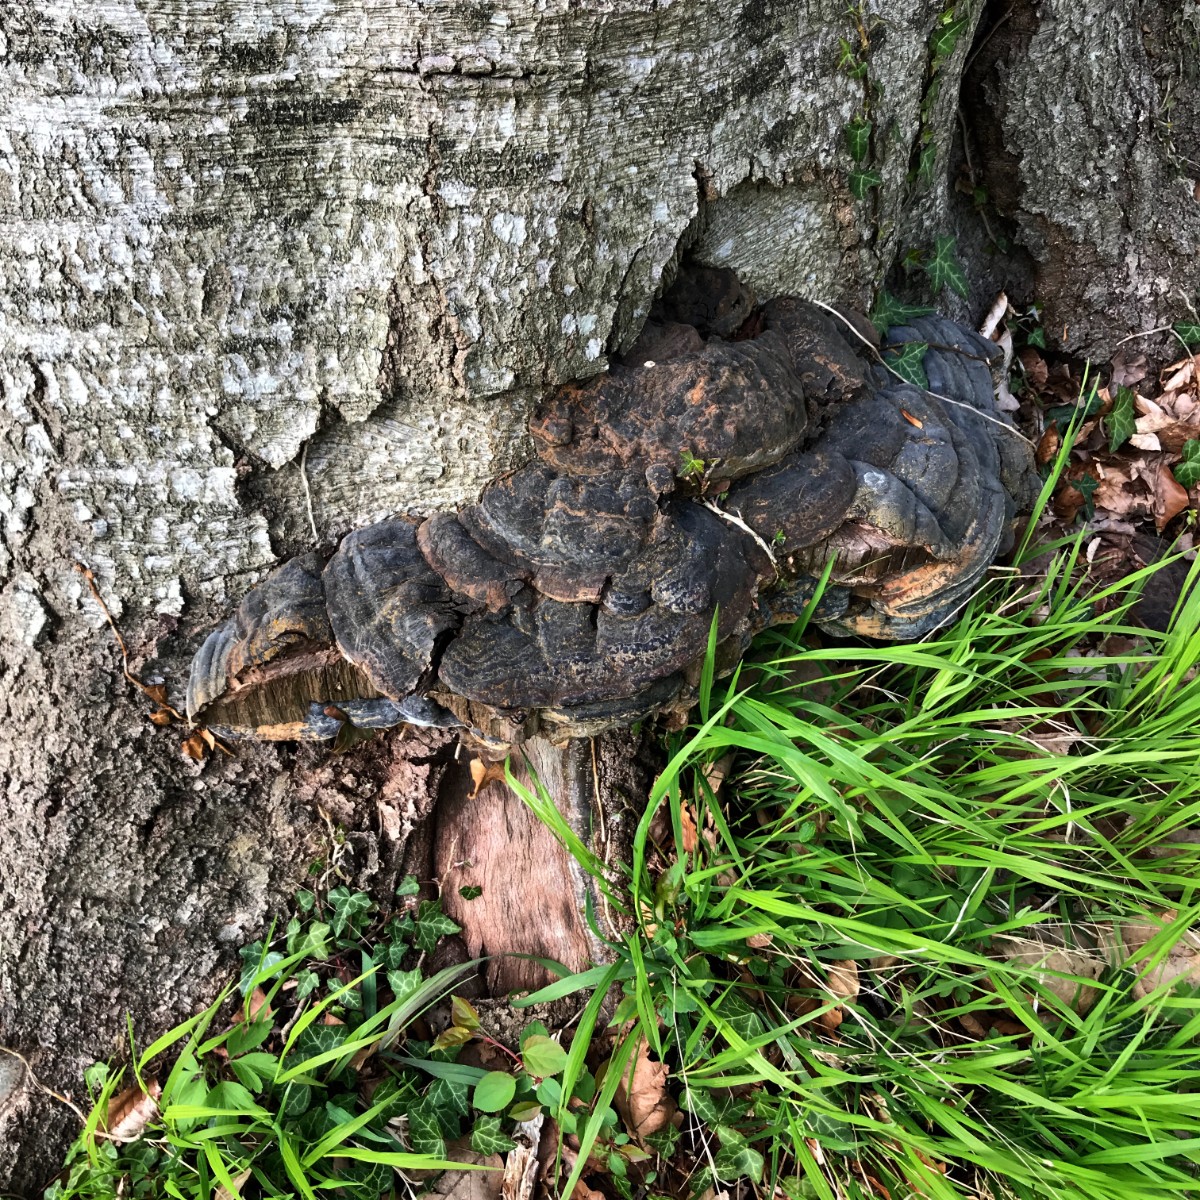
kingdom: Fungi
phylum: Basidiomycota
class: Agaricomycetes
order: Polyporales
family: Polyporaceae
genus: Ganoderma
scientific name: Ganoderma pfeifferi
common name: kobberrød lakporesvamp
